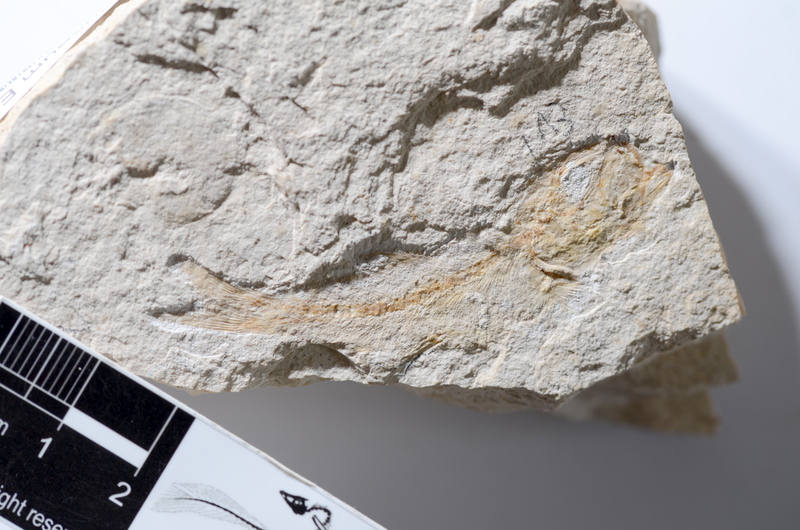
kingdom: Animalia
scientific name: Animalia
